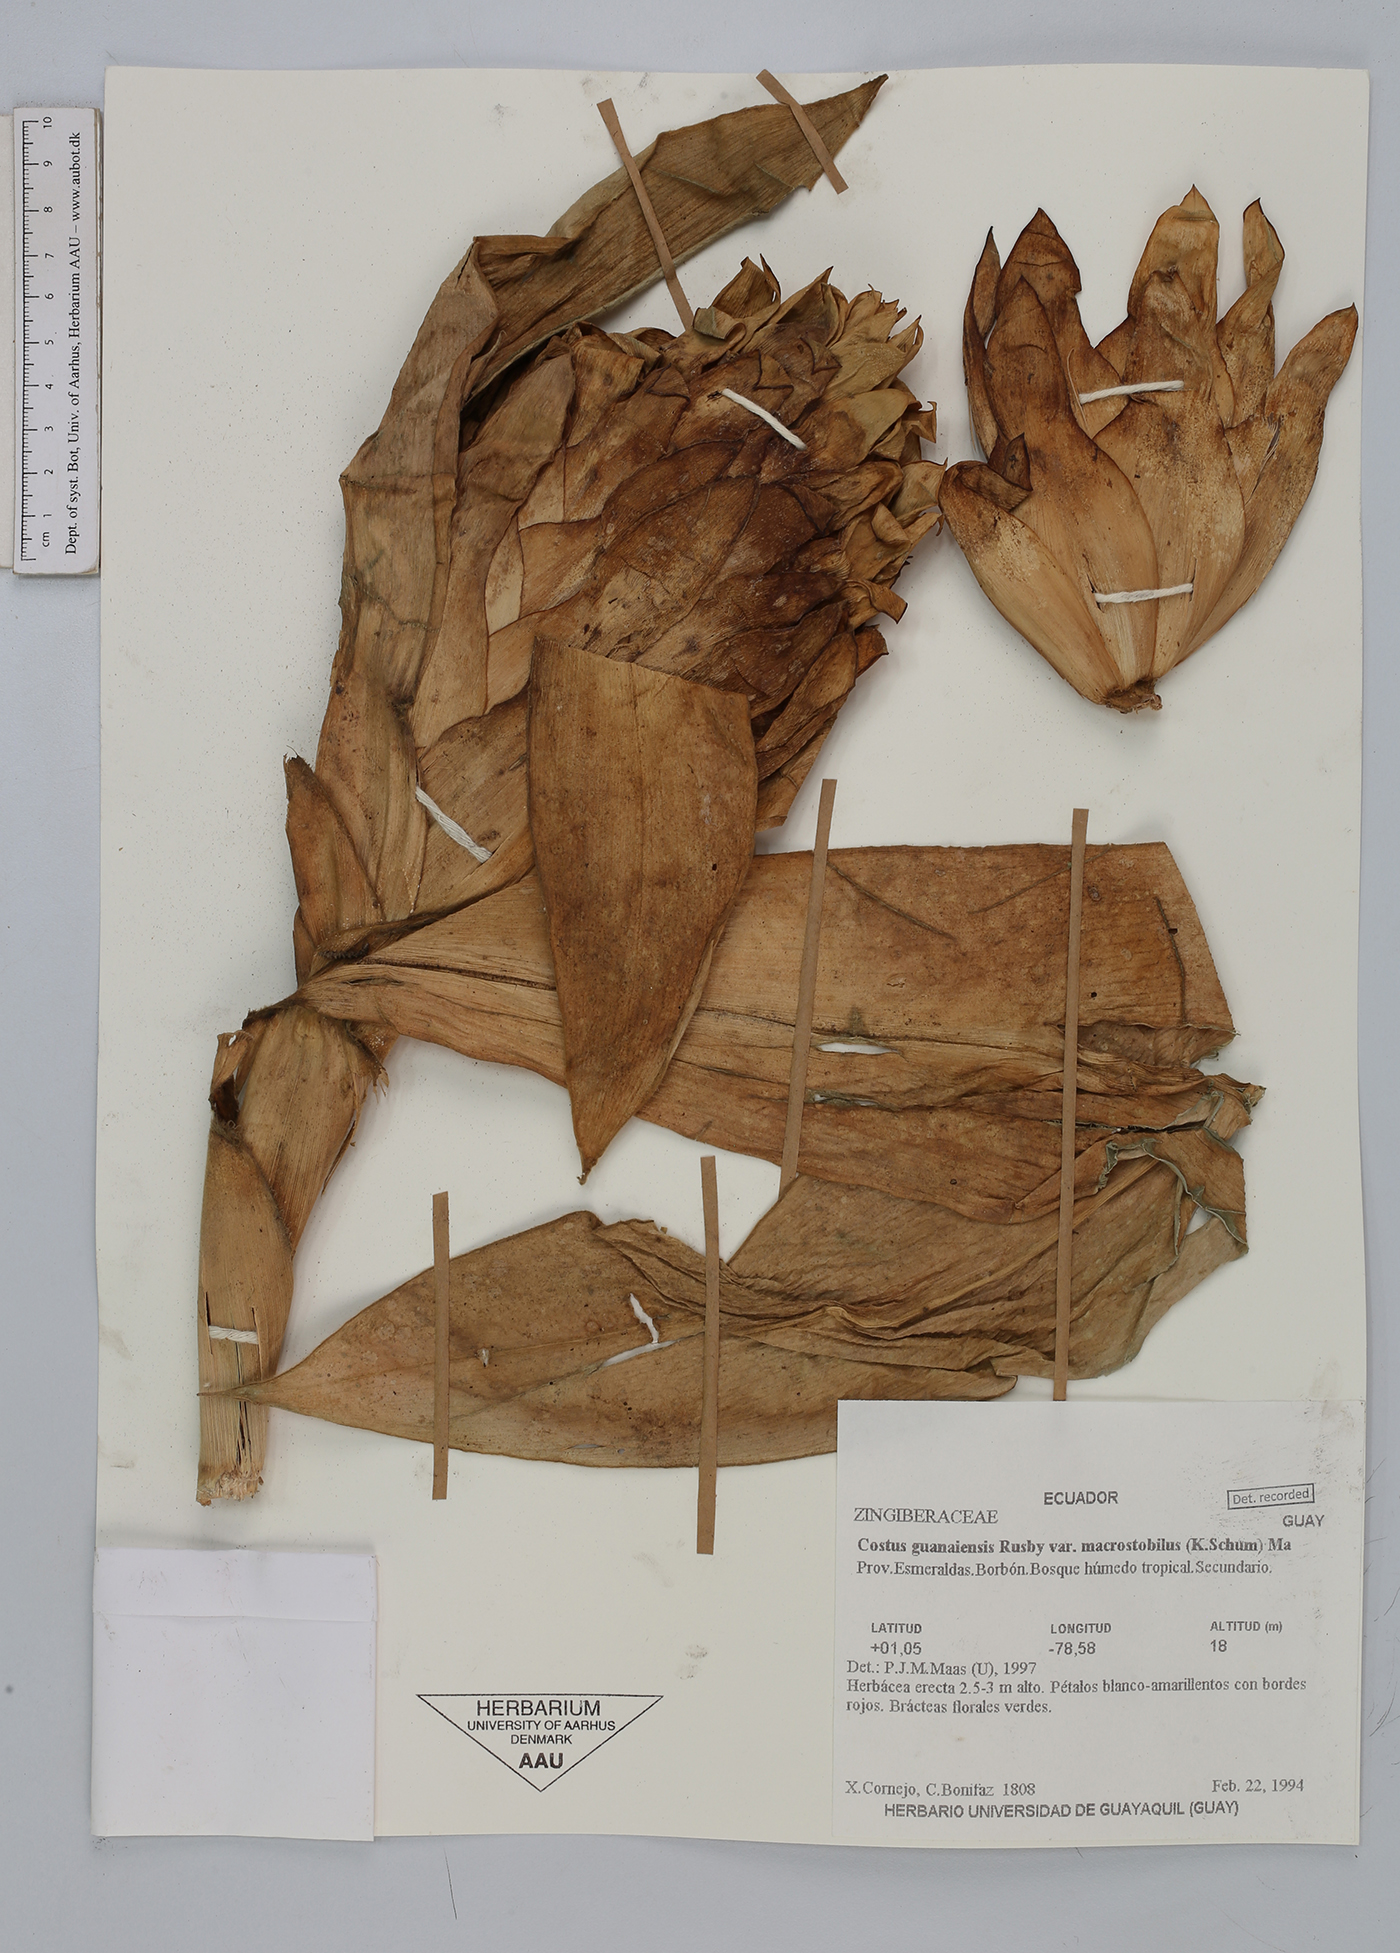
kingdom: Plantae
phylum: Tracheophyta
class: Liliopsida
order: Zingiberales
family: Costaceae
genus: Costus
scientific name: Costus guanaiensis
